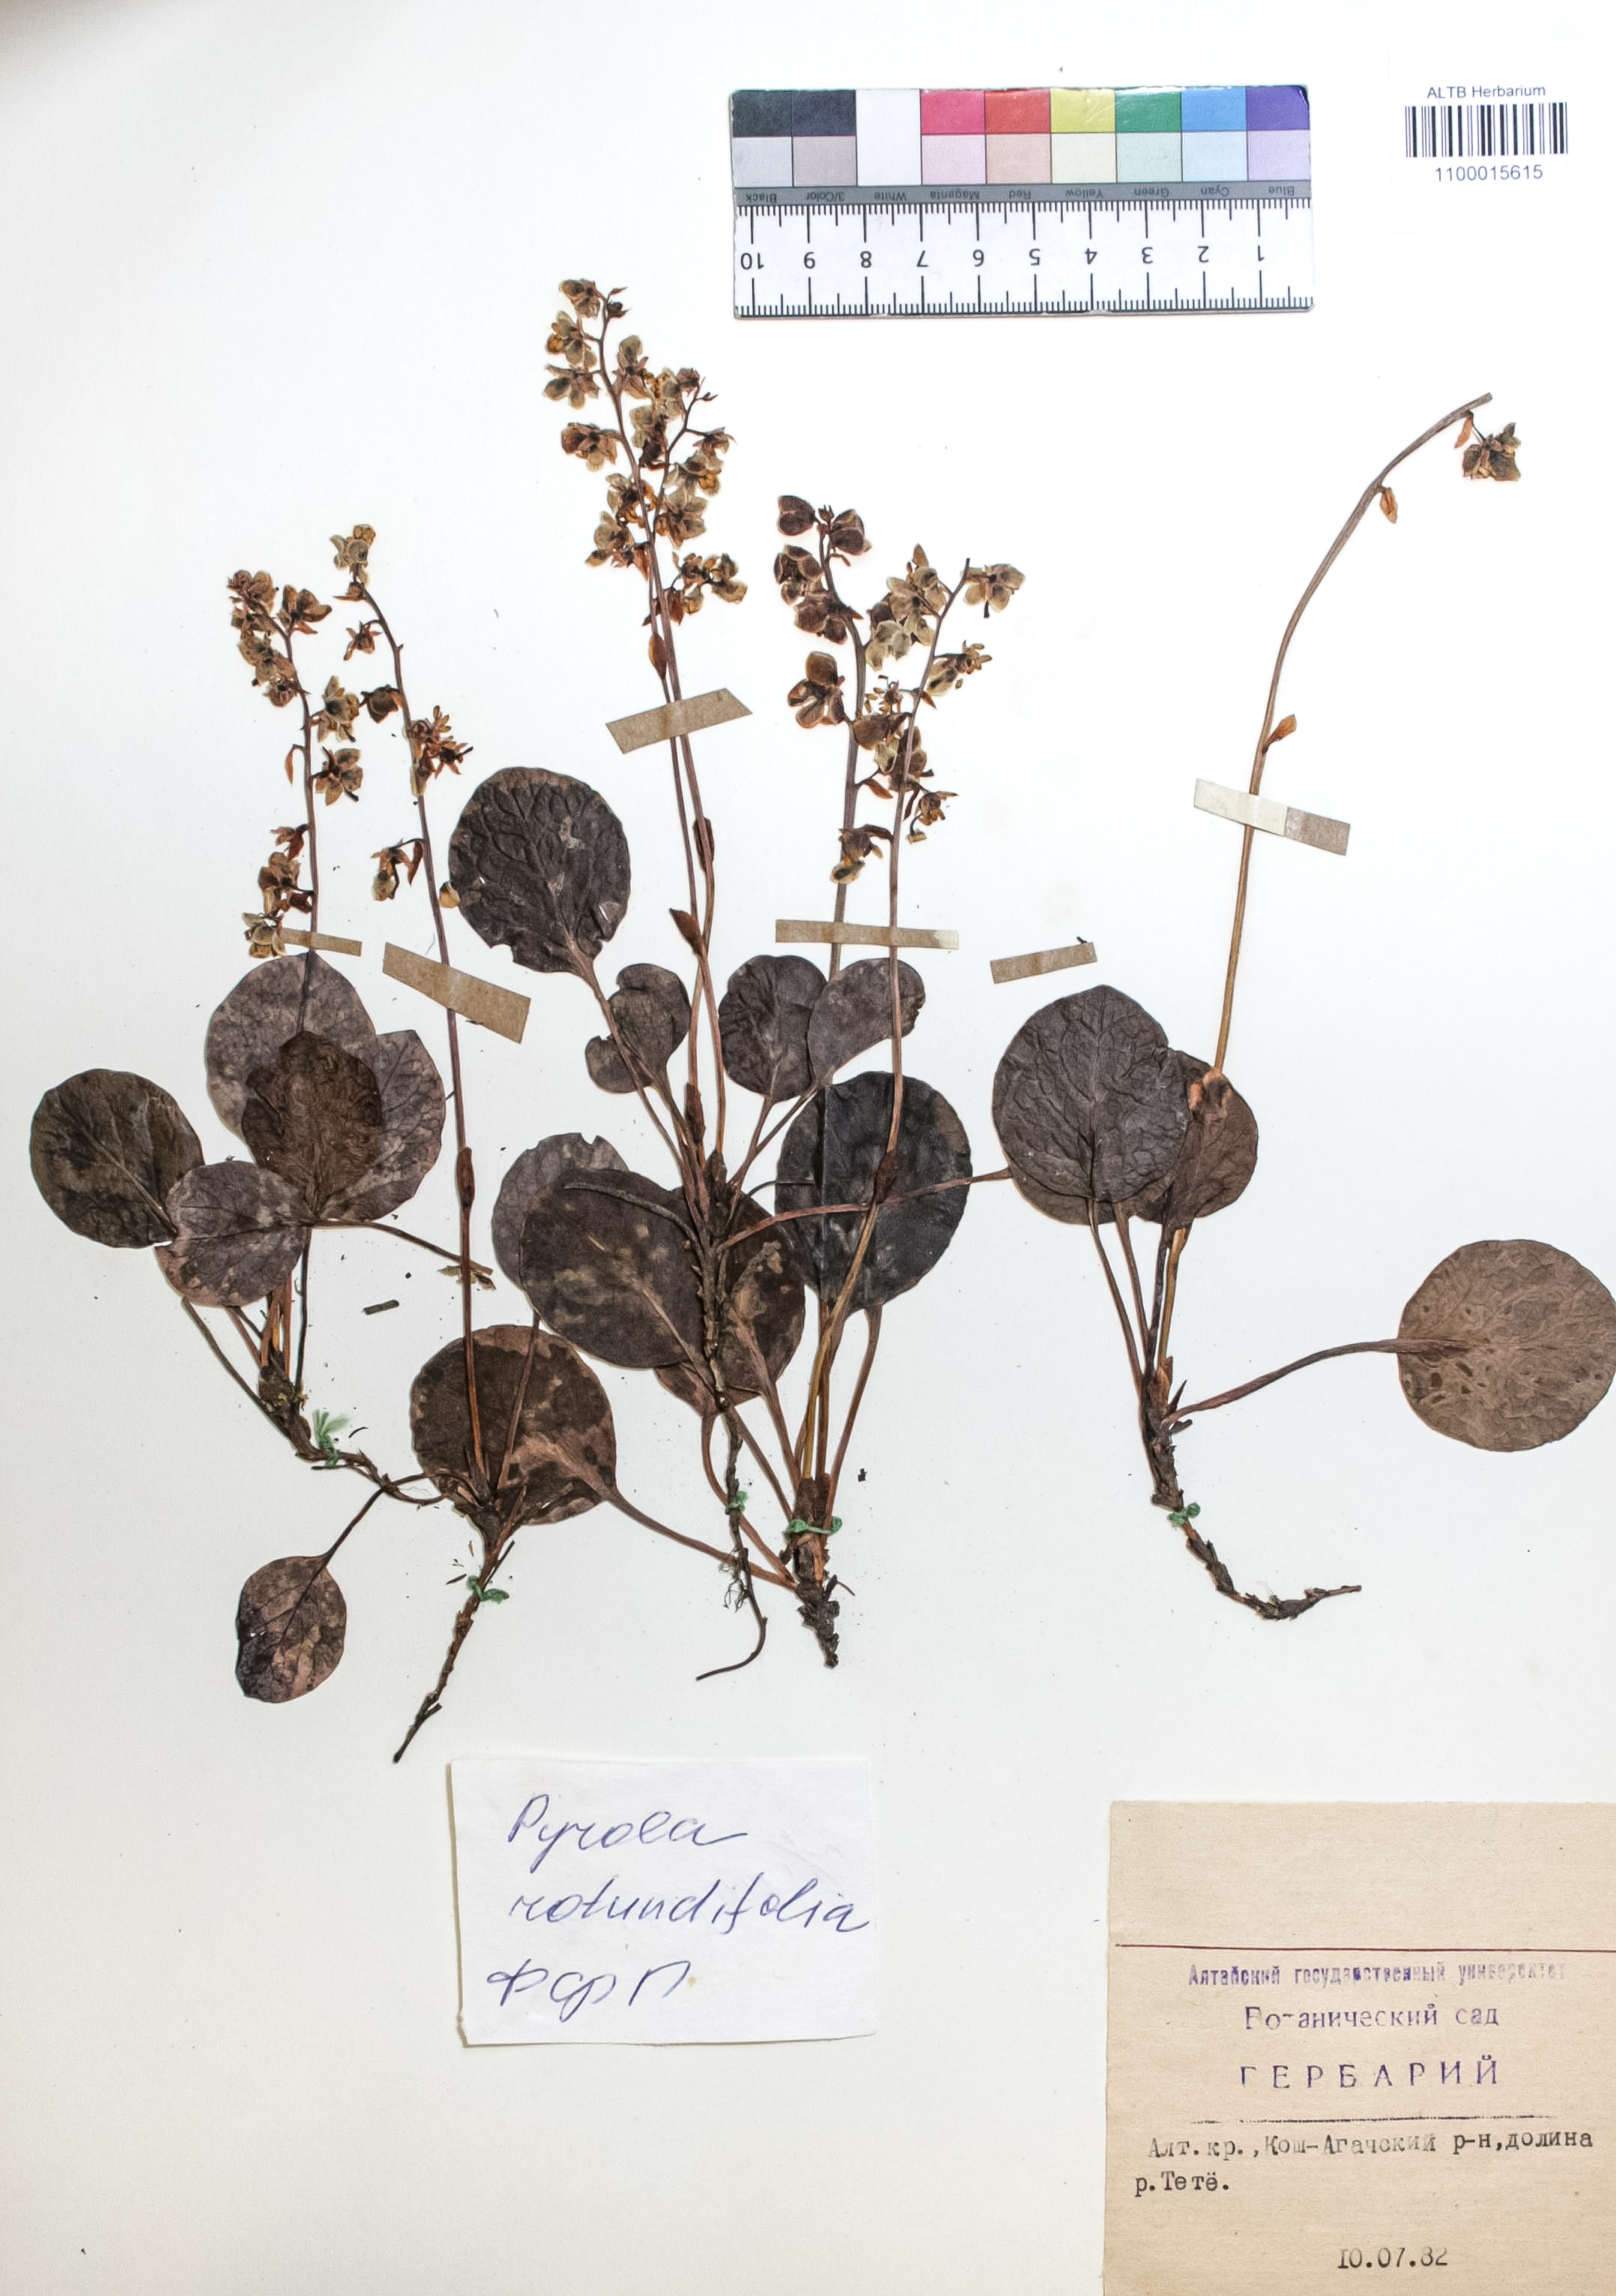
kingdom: Plantae
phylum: Tracheophyta
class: Magnoliopsida
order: Ericales
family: Ericaceae
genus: Pyrola
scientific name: Pyrola rotundifolia
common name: Round-leaved wintergreen
